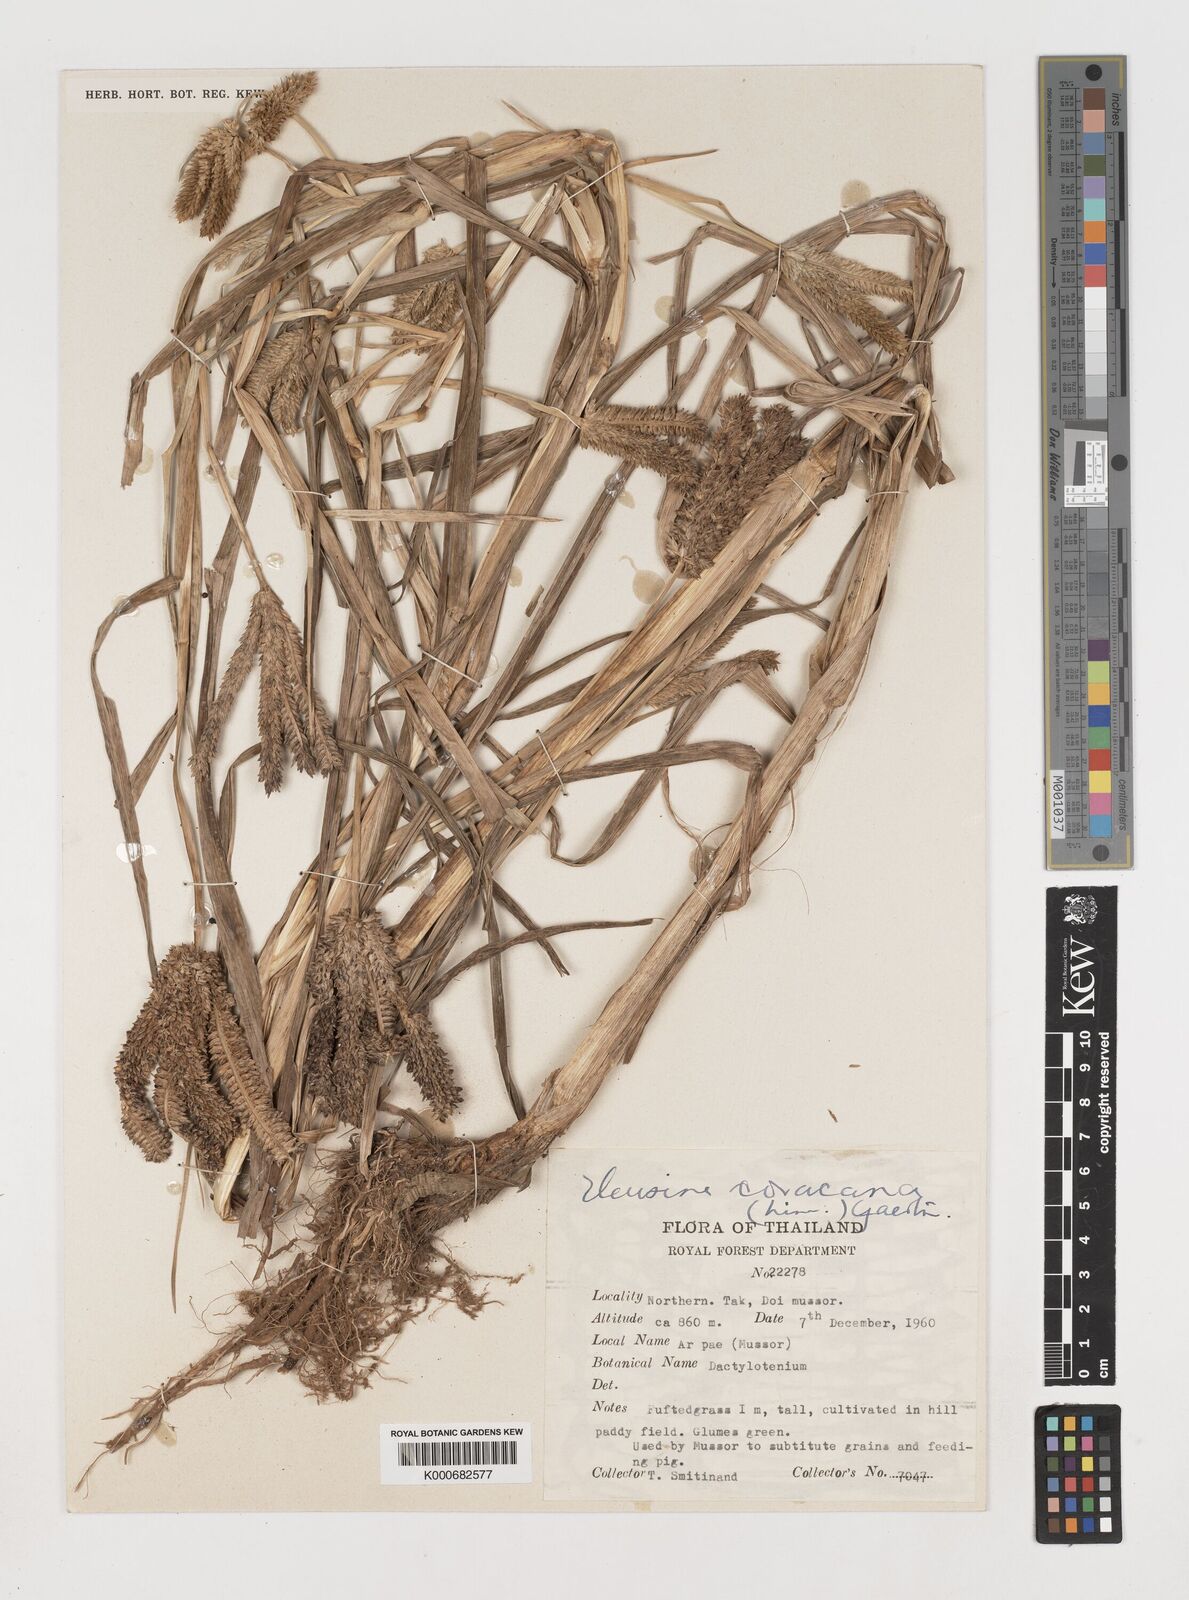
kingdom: Plantae
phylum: Tracheophyta
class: Liliopsida
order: Poales
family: Poaceae
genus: Eleusine
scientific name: Eleusine coracana
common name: Finger millet
